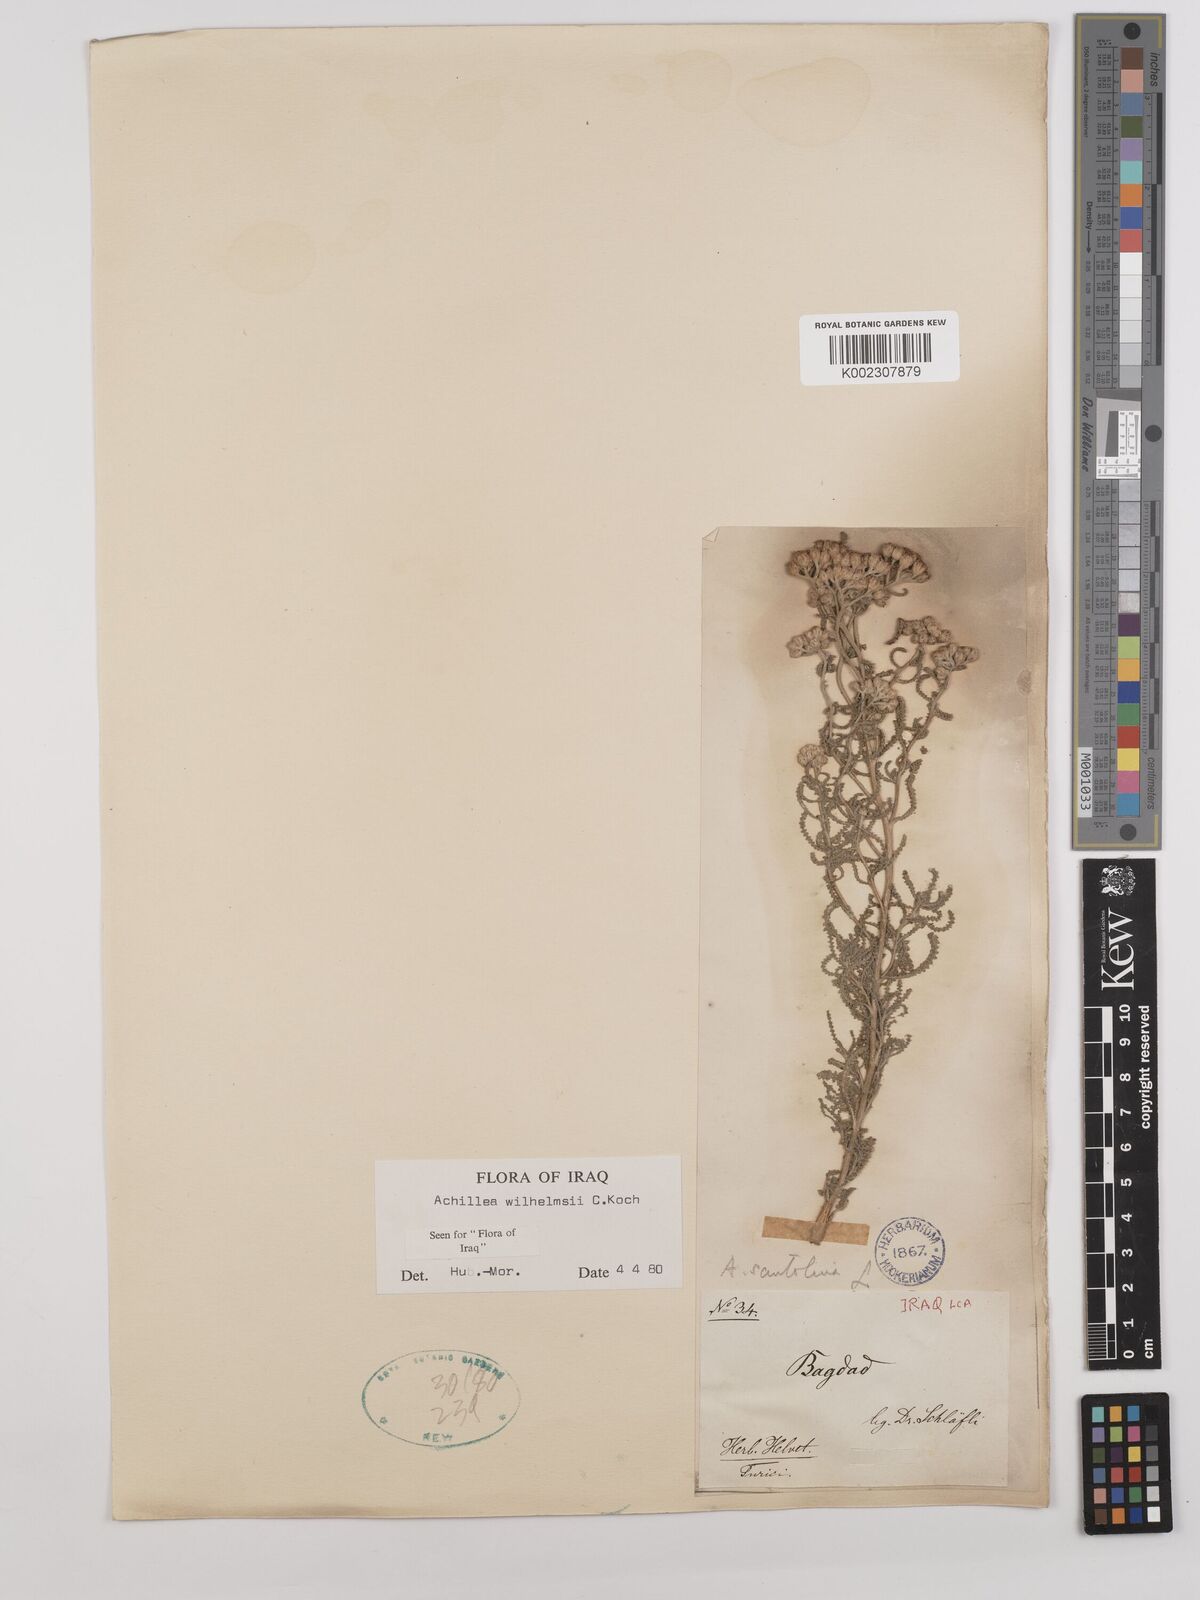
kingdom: Plantae
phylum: Tracheophyta
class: Magnoliopsida
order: Asterales
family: Asteraceae
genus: Achillea
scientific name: Achillea wilhelmsii
